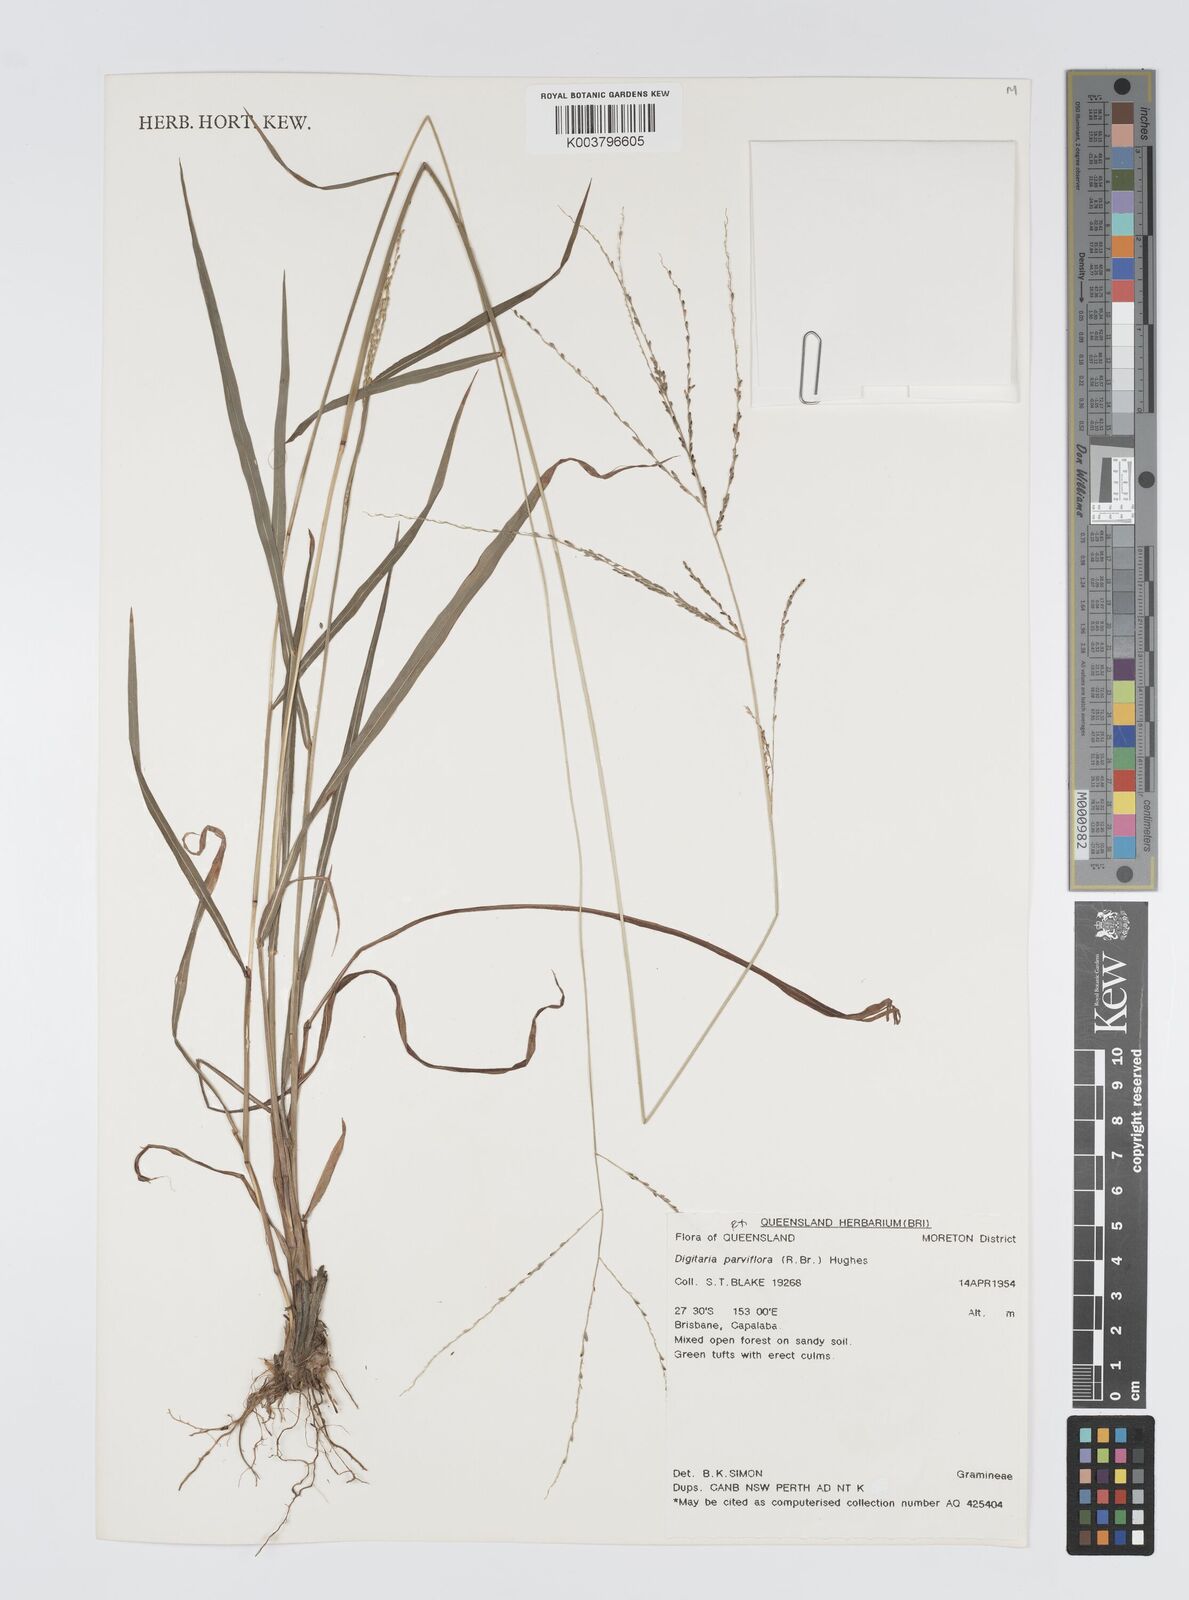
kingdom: Plantae
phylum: Tracheophyta
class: Liliopsida
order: Poales
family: Poaceae
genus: Digitaria
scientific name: Digitaria parviflora
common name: Small-flower finger grass
